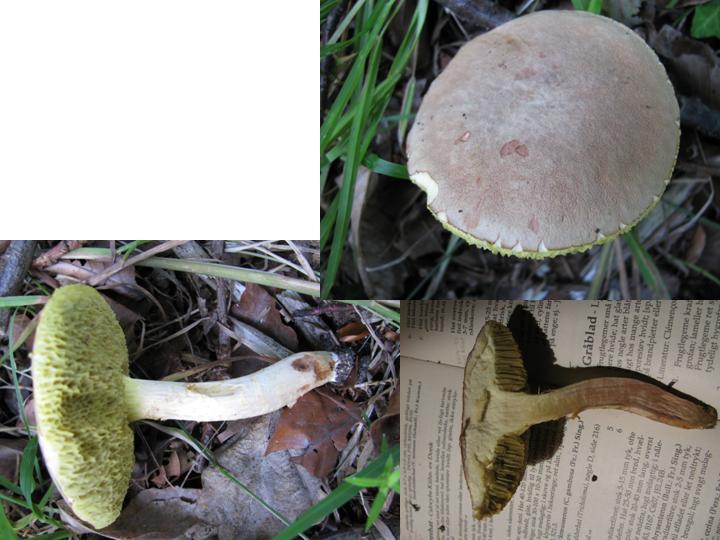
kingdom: Fungi
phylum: Basidiomycota
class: Agaricomycetes
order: Boletales
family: Boletaceae
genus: Xerocomus
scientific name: Xerocomus subtomentosus
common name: filtet rørhat
